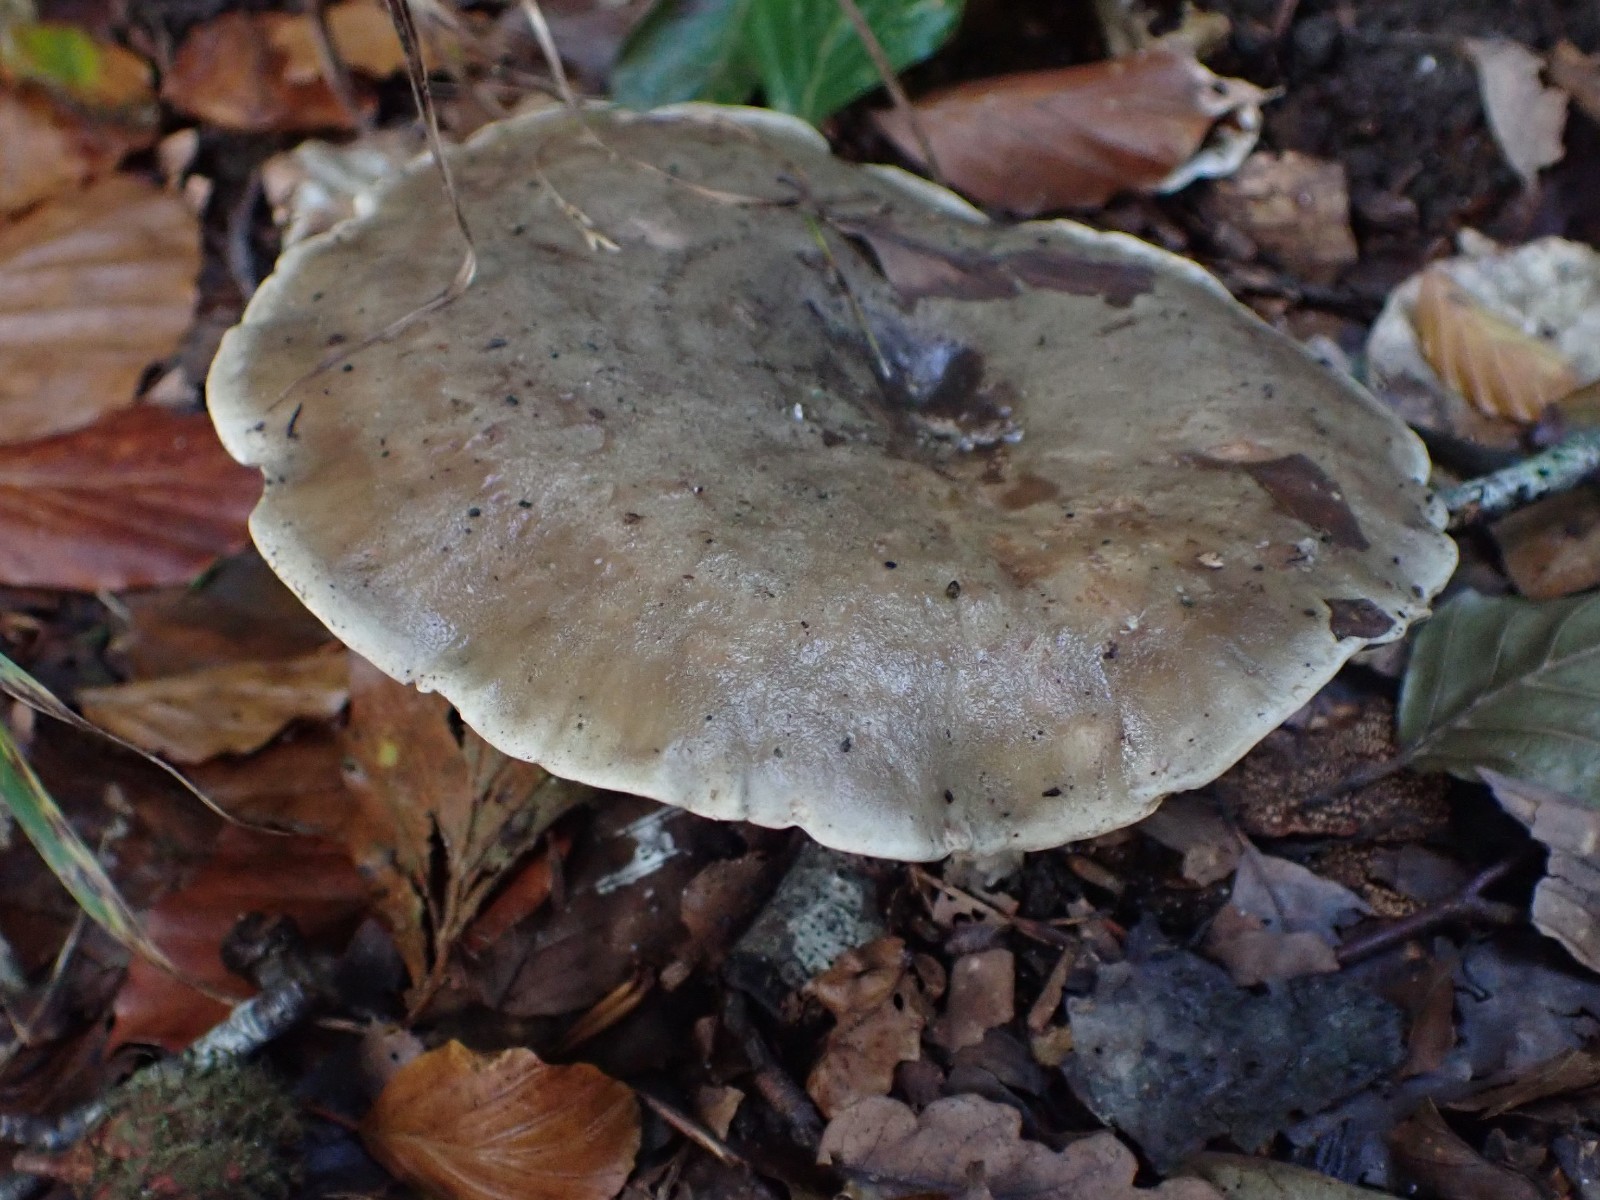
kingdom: Fungi
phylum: Basidiomycota
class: Agaricomycetes
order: Russulales
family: Russulaceae
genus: Lactarius
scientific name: Lactarius fluens
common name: lysrandet mælkehat
